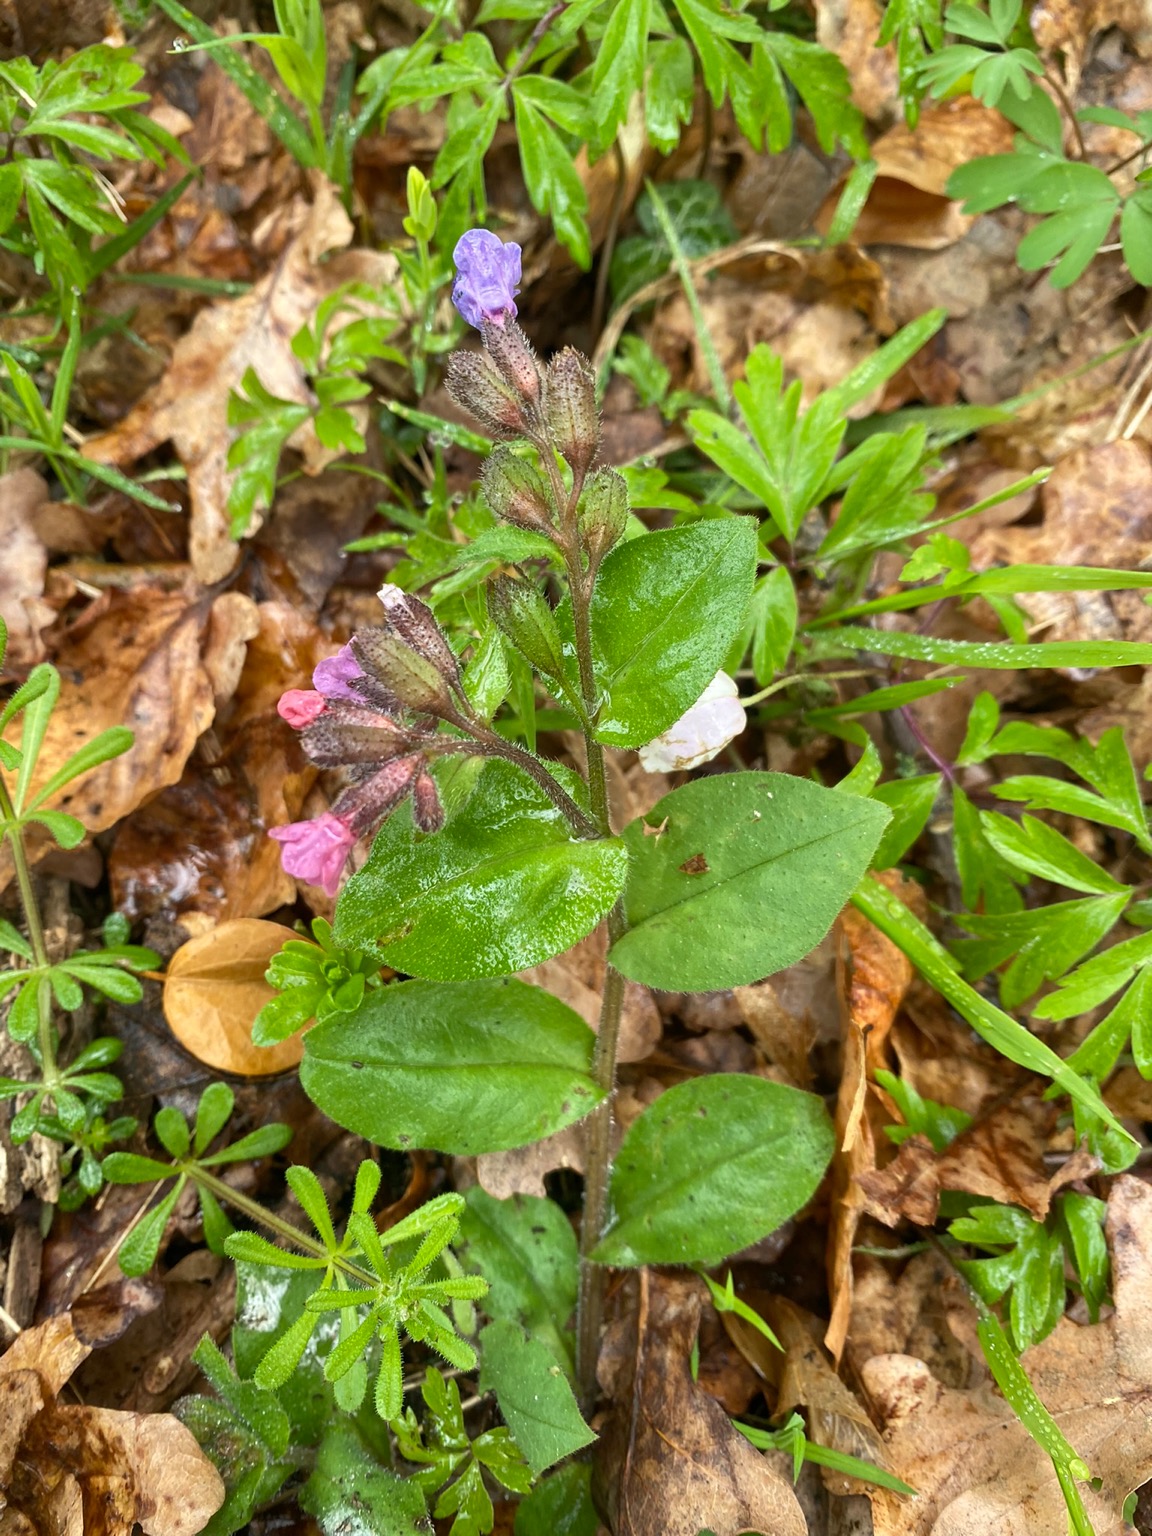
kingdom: Plantae
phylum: Tracheophyta
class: Magnoliopsida
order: Boraginales
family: Boraginaceae
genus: Pulmonaria
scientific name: Pulmonaria obscura
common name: Almindelig lungeurt
